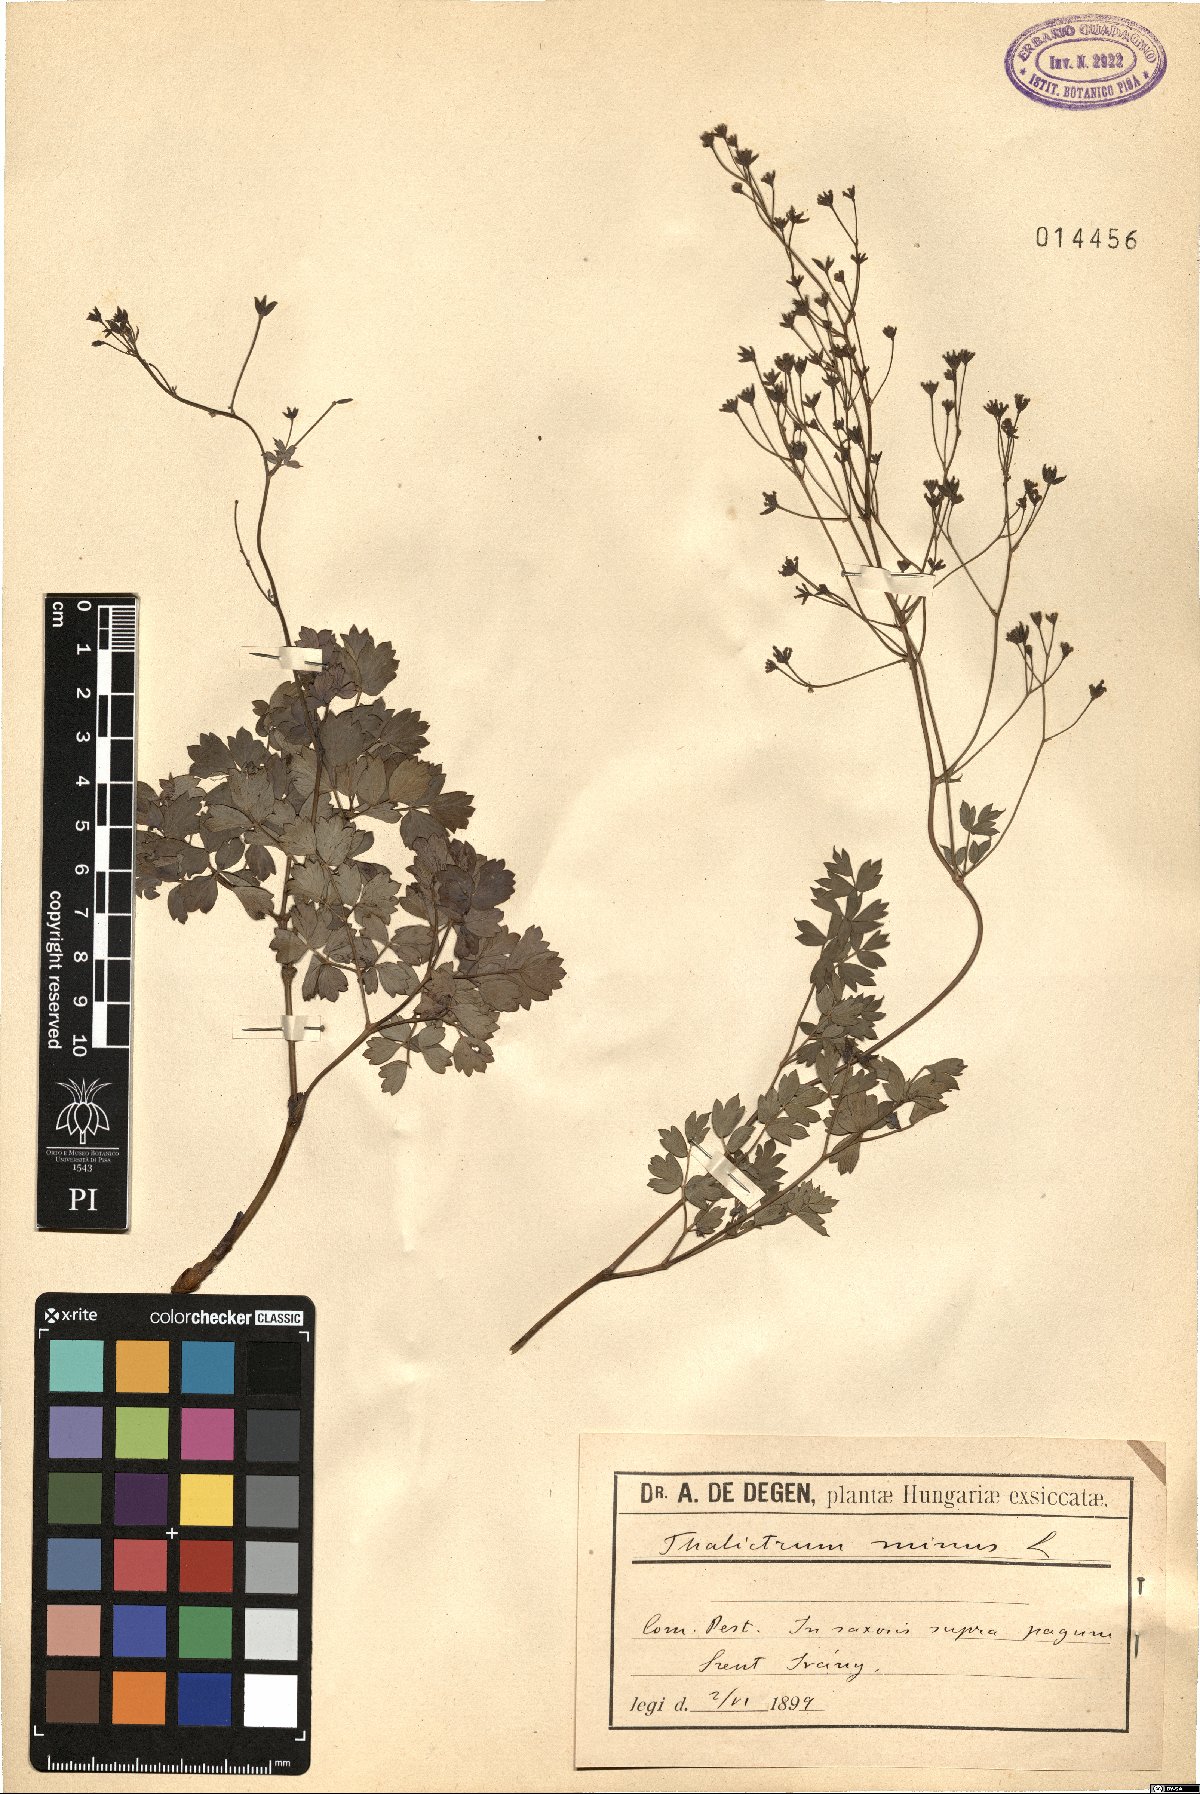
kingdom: Plantae
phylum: Tracheophyta
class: Magnoliopsida
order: Ranunculales
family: Ranunculaceae
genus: Thalictrum
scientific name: Thalictrum minus
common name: Lesser meadow-rue
